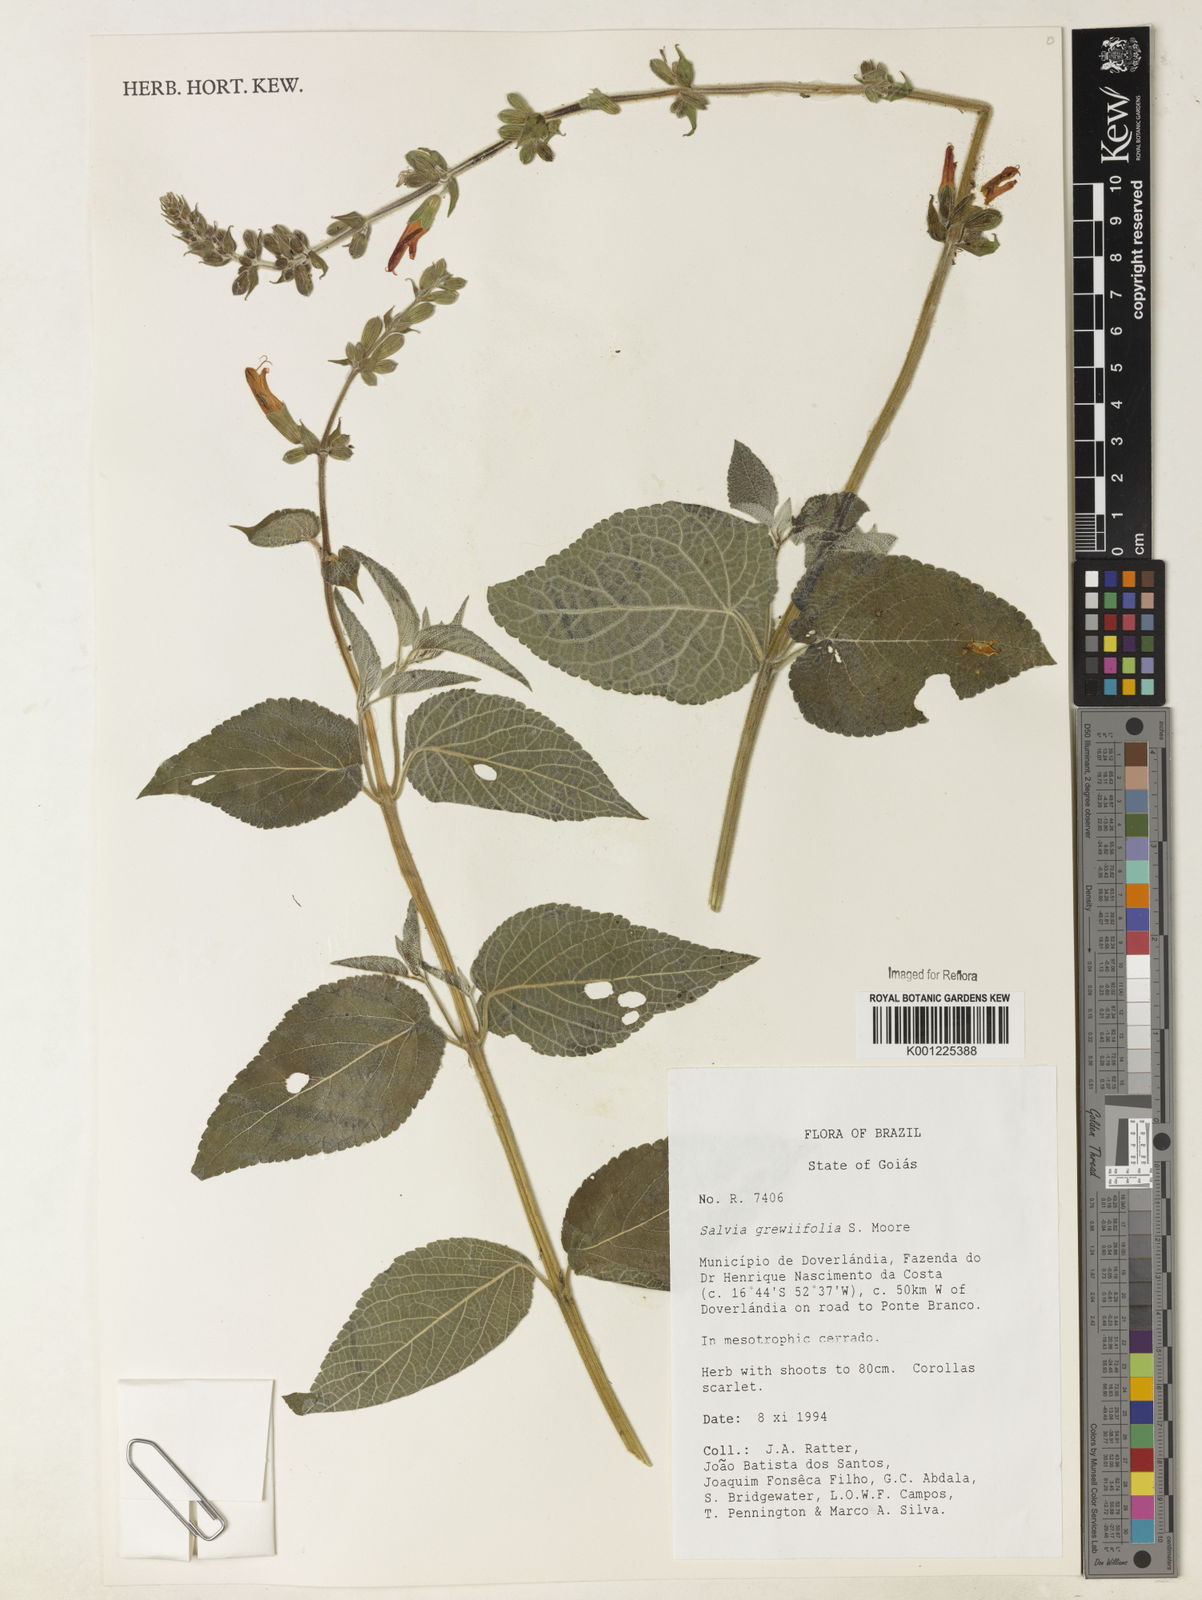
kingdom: Plantae
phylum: Tracheophyta
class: Magnoliopsida
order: Lamiales
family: Lamiaceae
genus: Salvia
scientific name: Salvia grewiifolia
